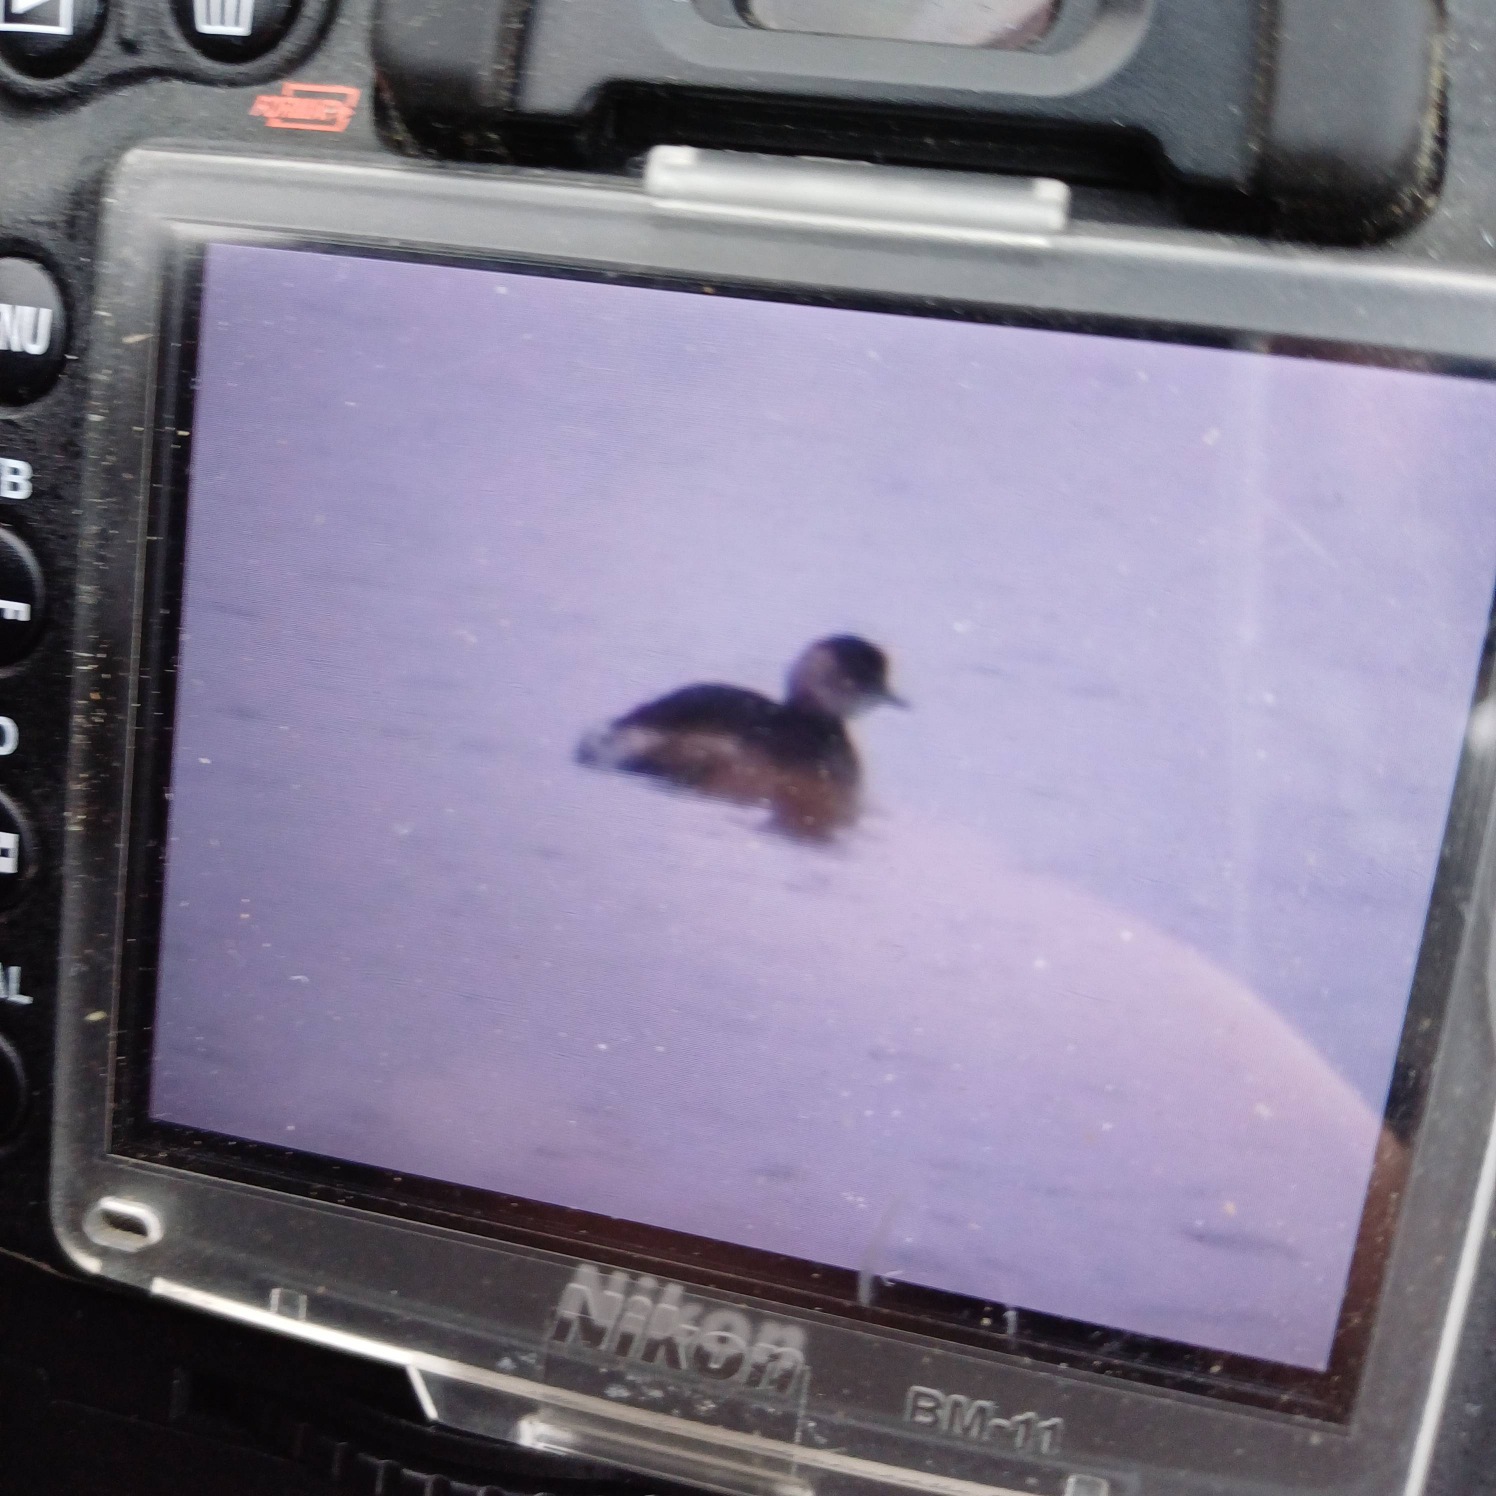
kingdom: Animalia
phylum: Chordata
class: Aves
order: Podicipediformes
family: Podicipedidae
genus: Tachybaptus
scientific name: Tachybaptus ruficollis
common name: Lille lappedykker
